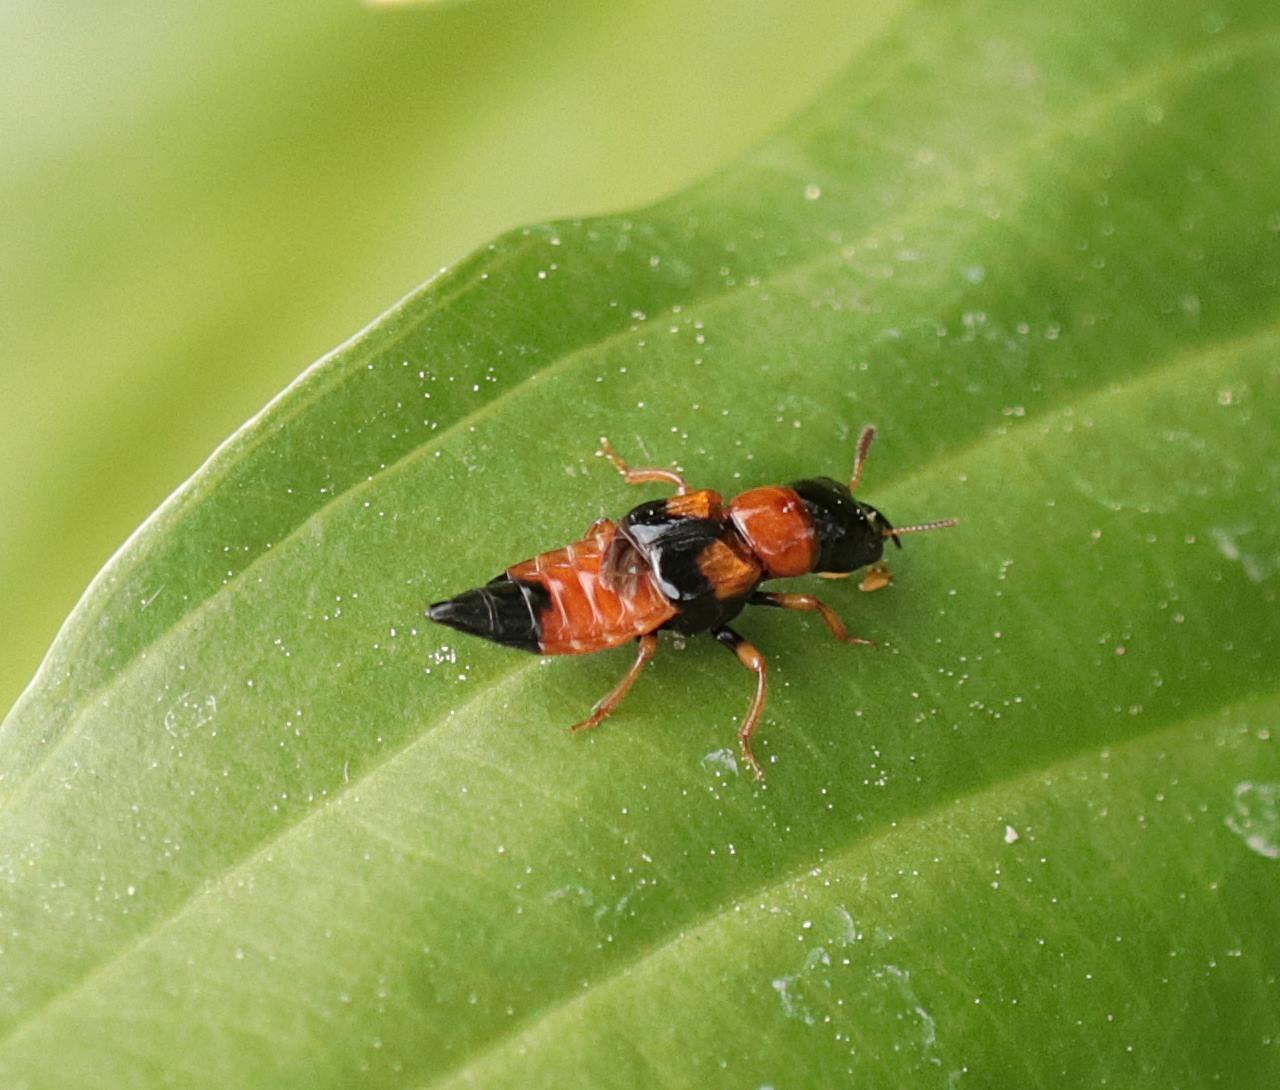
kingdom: Animalia
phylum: Arthropoda
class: Insecta
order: Coleoptera
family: Staphylinidae
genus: Oxyporus
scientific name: Oxyporus rufus
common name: Ildrovbille
